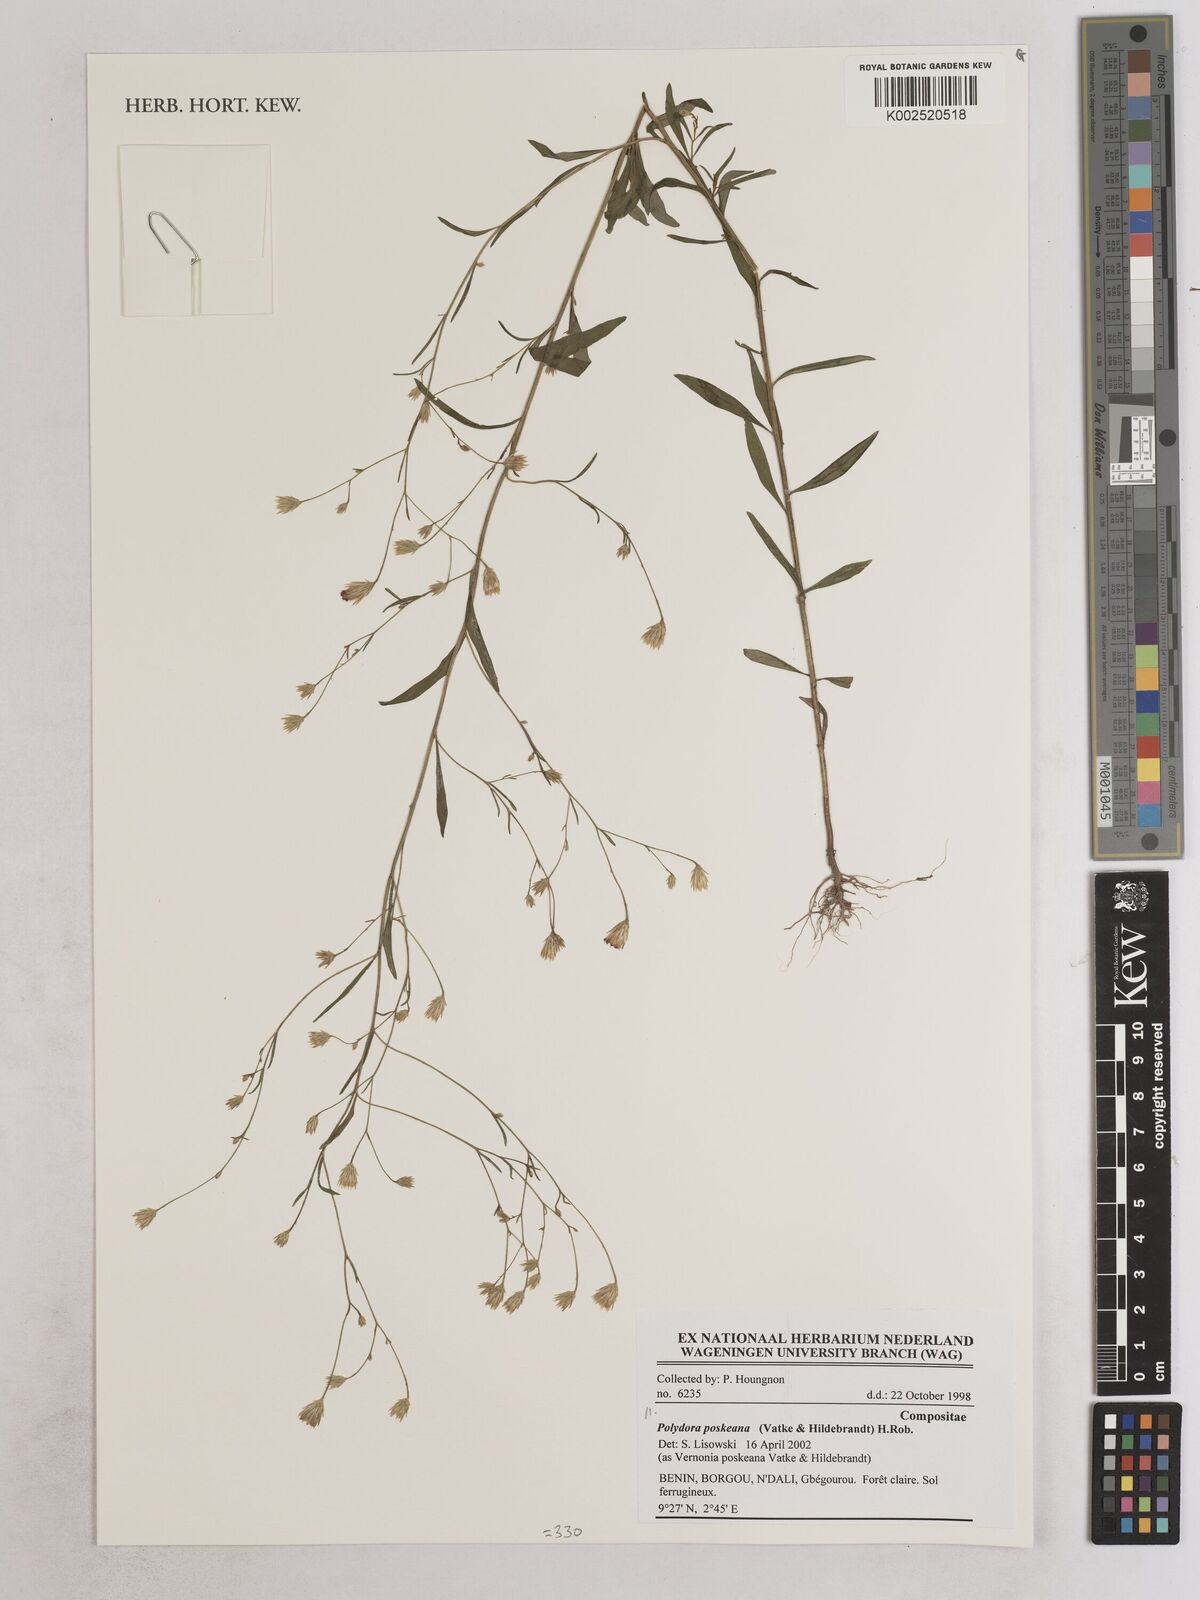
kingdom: Plantae
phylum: Tracheophyta
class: Magnoliopsida
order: Asterales
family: Asteraceae
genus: Crystallopollen
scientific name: Crystallopollen angustifolium
